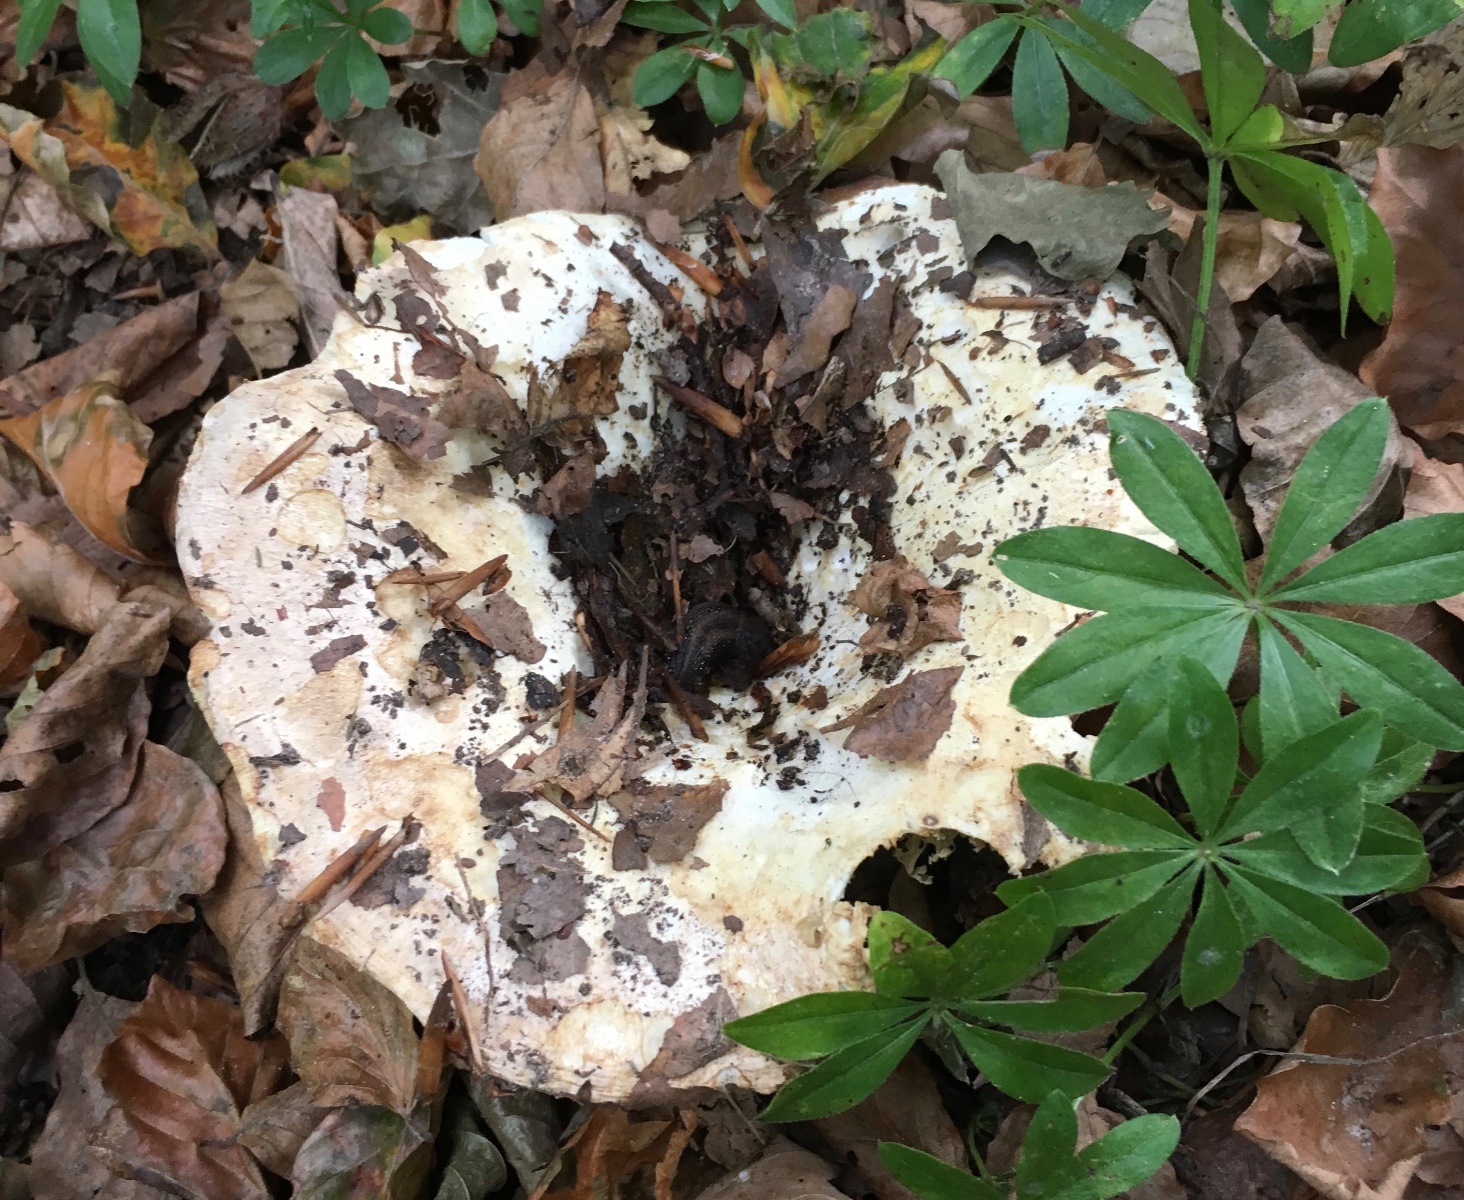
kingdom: Fungi
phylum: Basidiomycota
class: Agaricomycetes
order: Russulales
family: Russulaceae
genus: Russula
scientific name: Russula chloroides
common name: grønhalset tragt-skørhat
